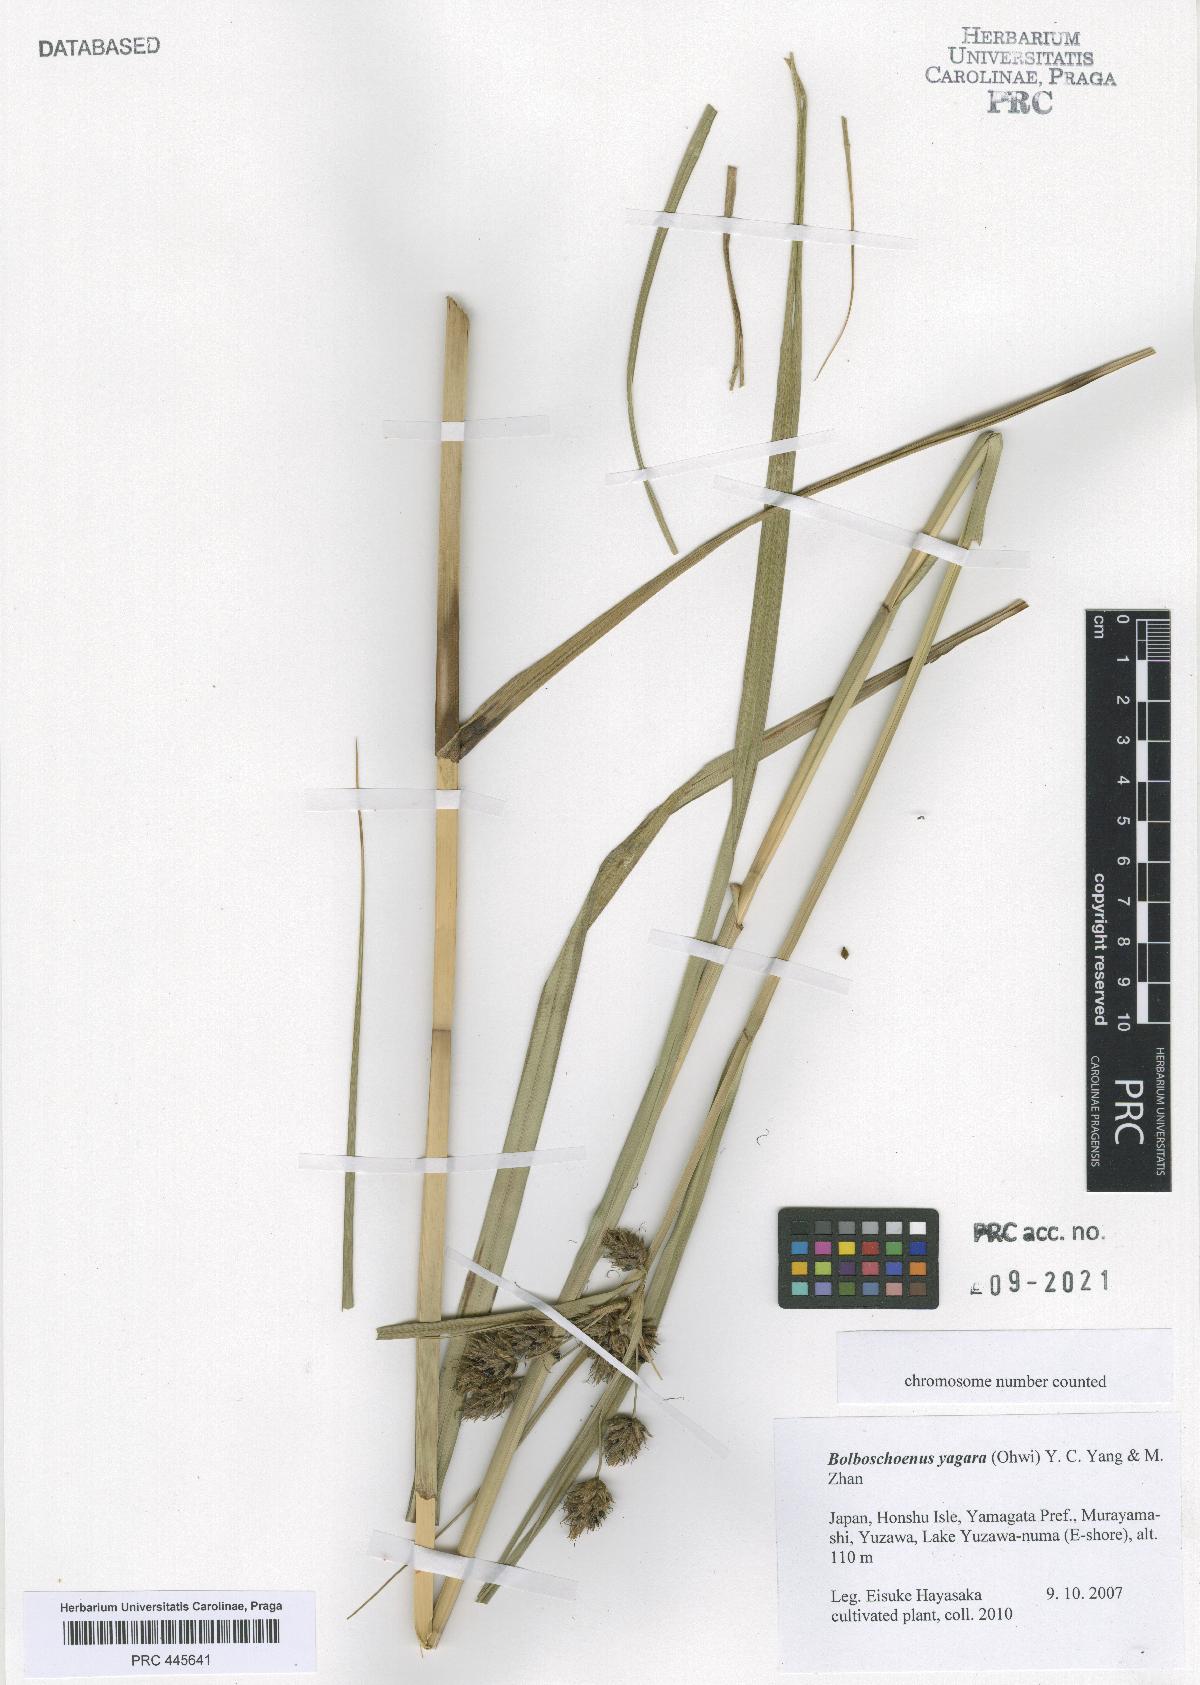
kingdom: Plantae
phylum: Tracheophyta
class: Liliopsida
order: Poales
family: Cyperaceae
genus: Bolboschoenus
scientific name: Bolboschoenus yagara
